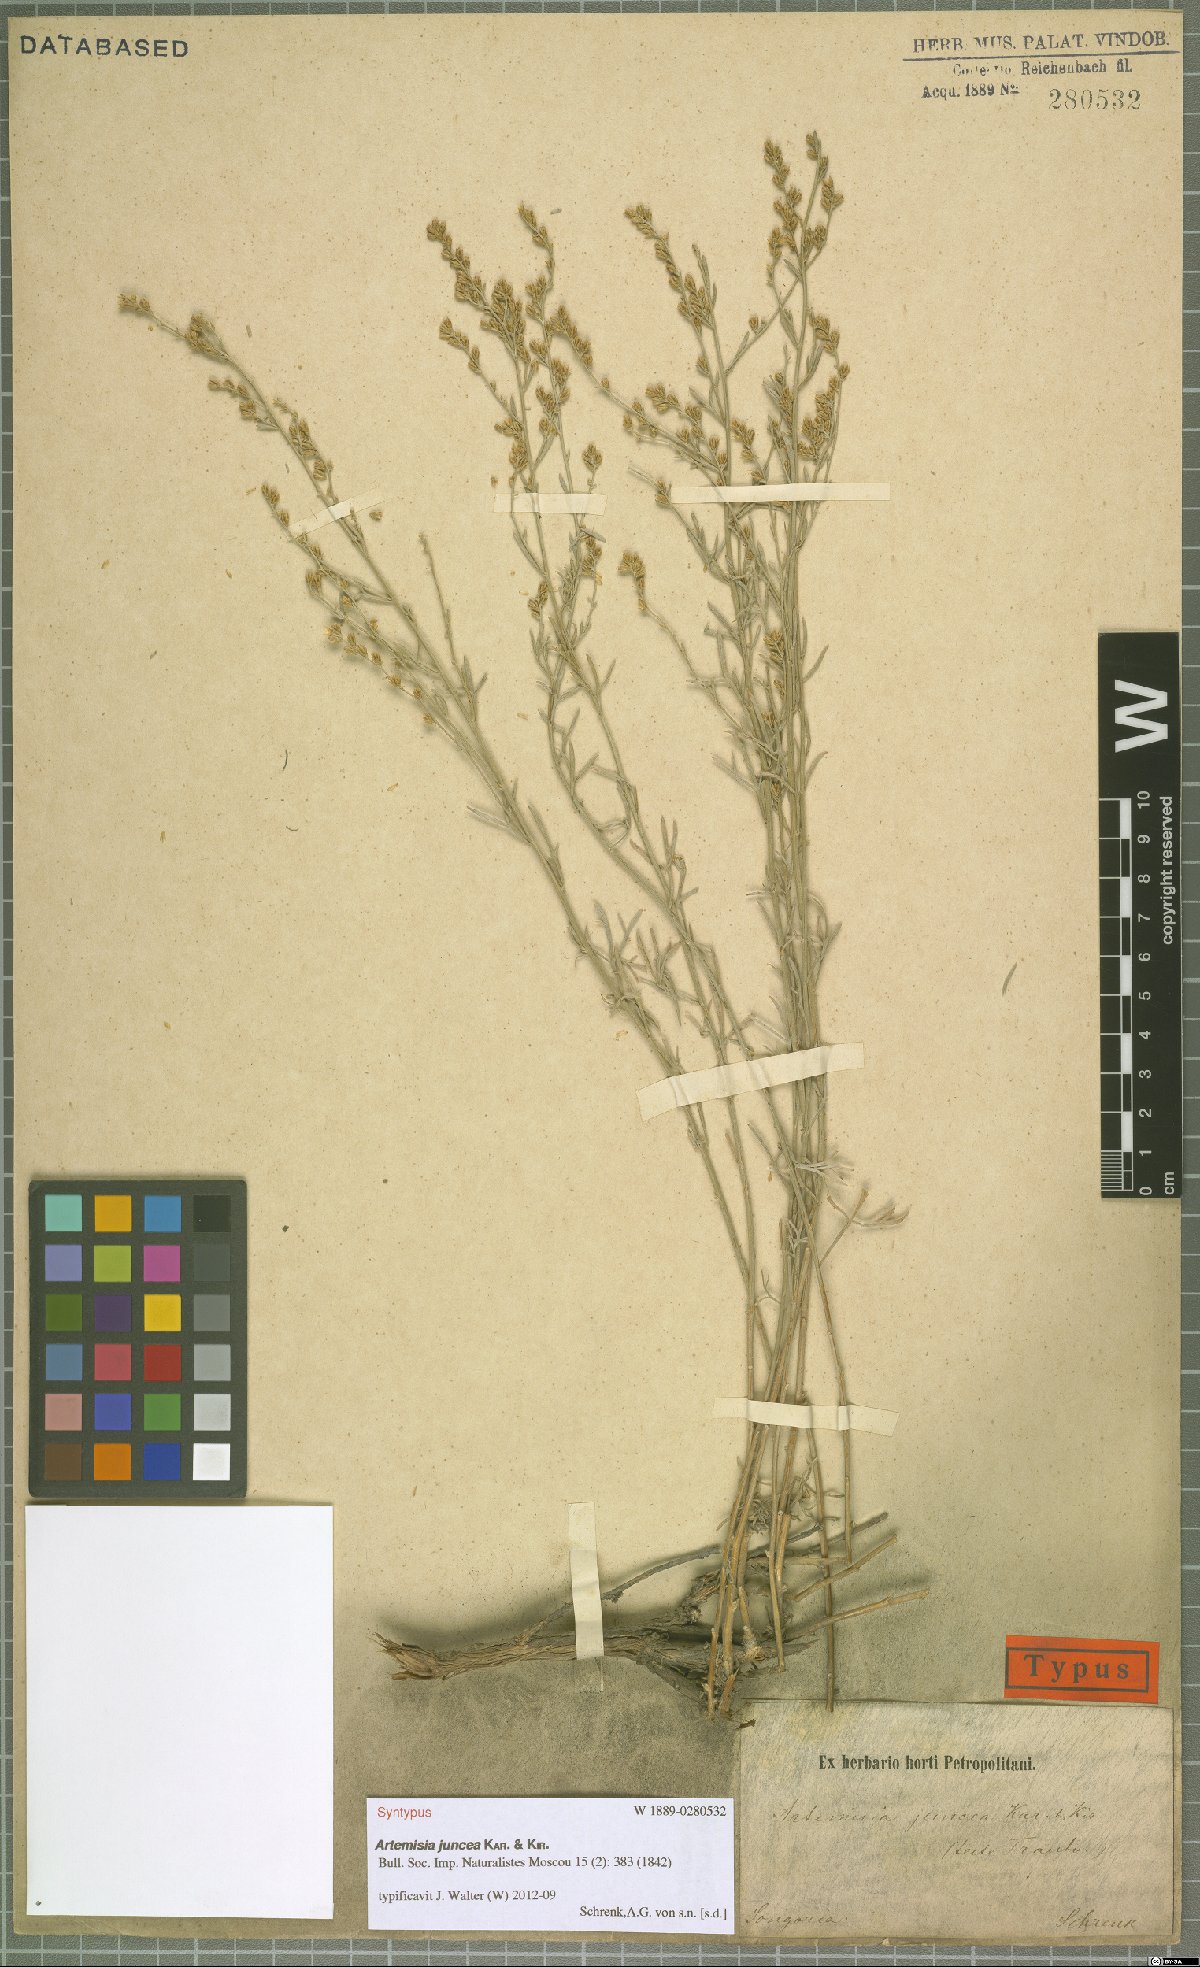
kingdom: Plantae
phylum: Tracheophyta
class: Magnoliopsida
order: Asterales
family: Asteraceae
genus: Artemisia
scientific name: Artemisia juncea
